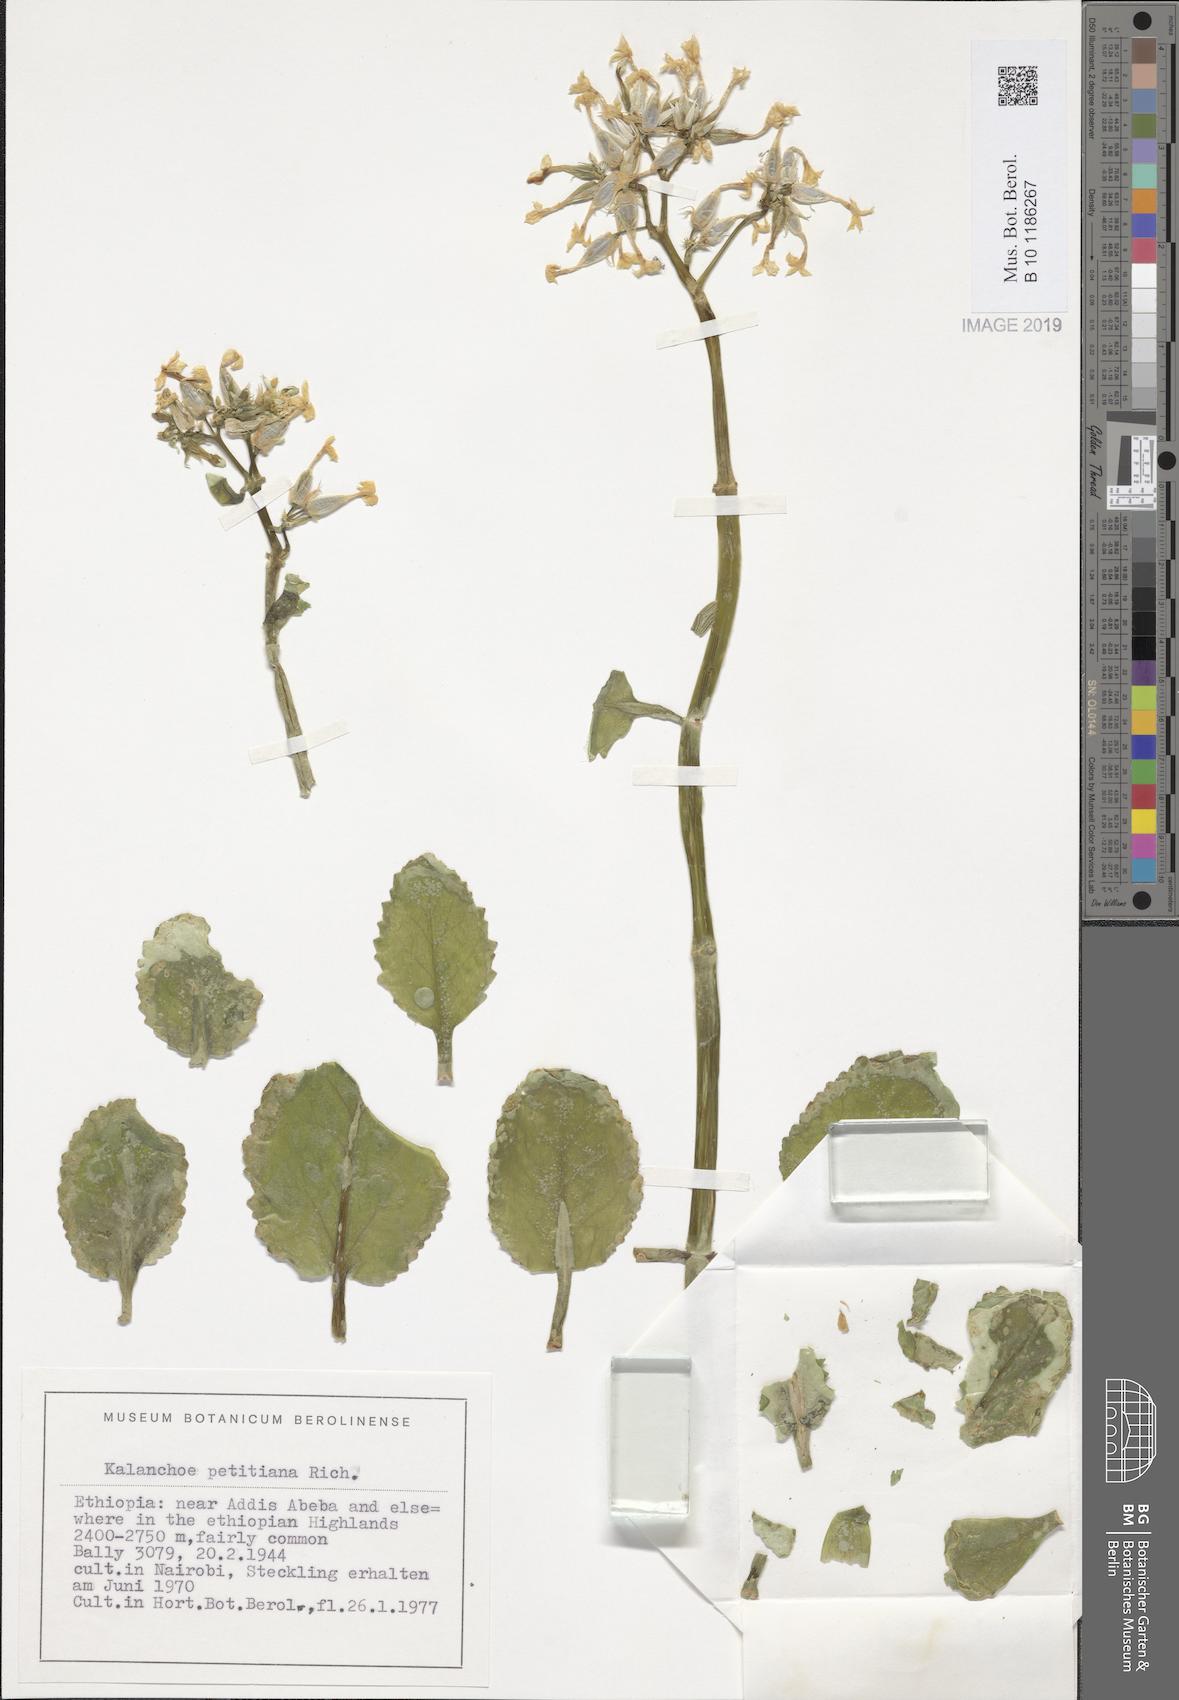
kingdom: Plantae
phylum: Tracheophyta
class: Magnoliopsida
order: Saxifragales
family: Crassulaceae
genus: Kalanchoe
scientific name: Kalanchoe petitiana
